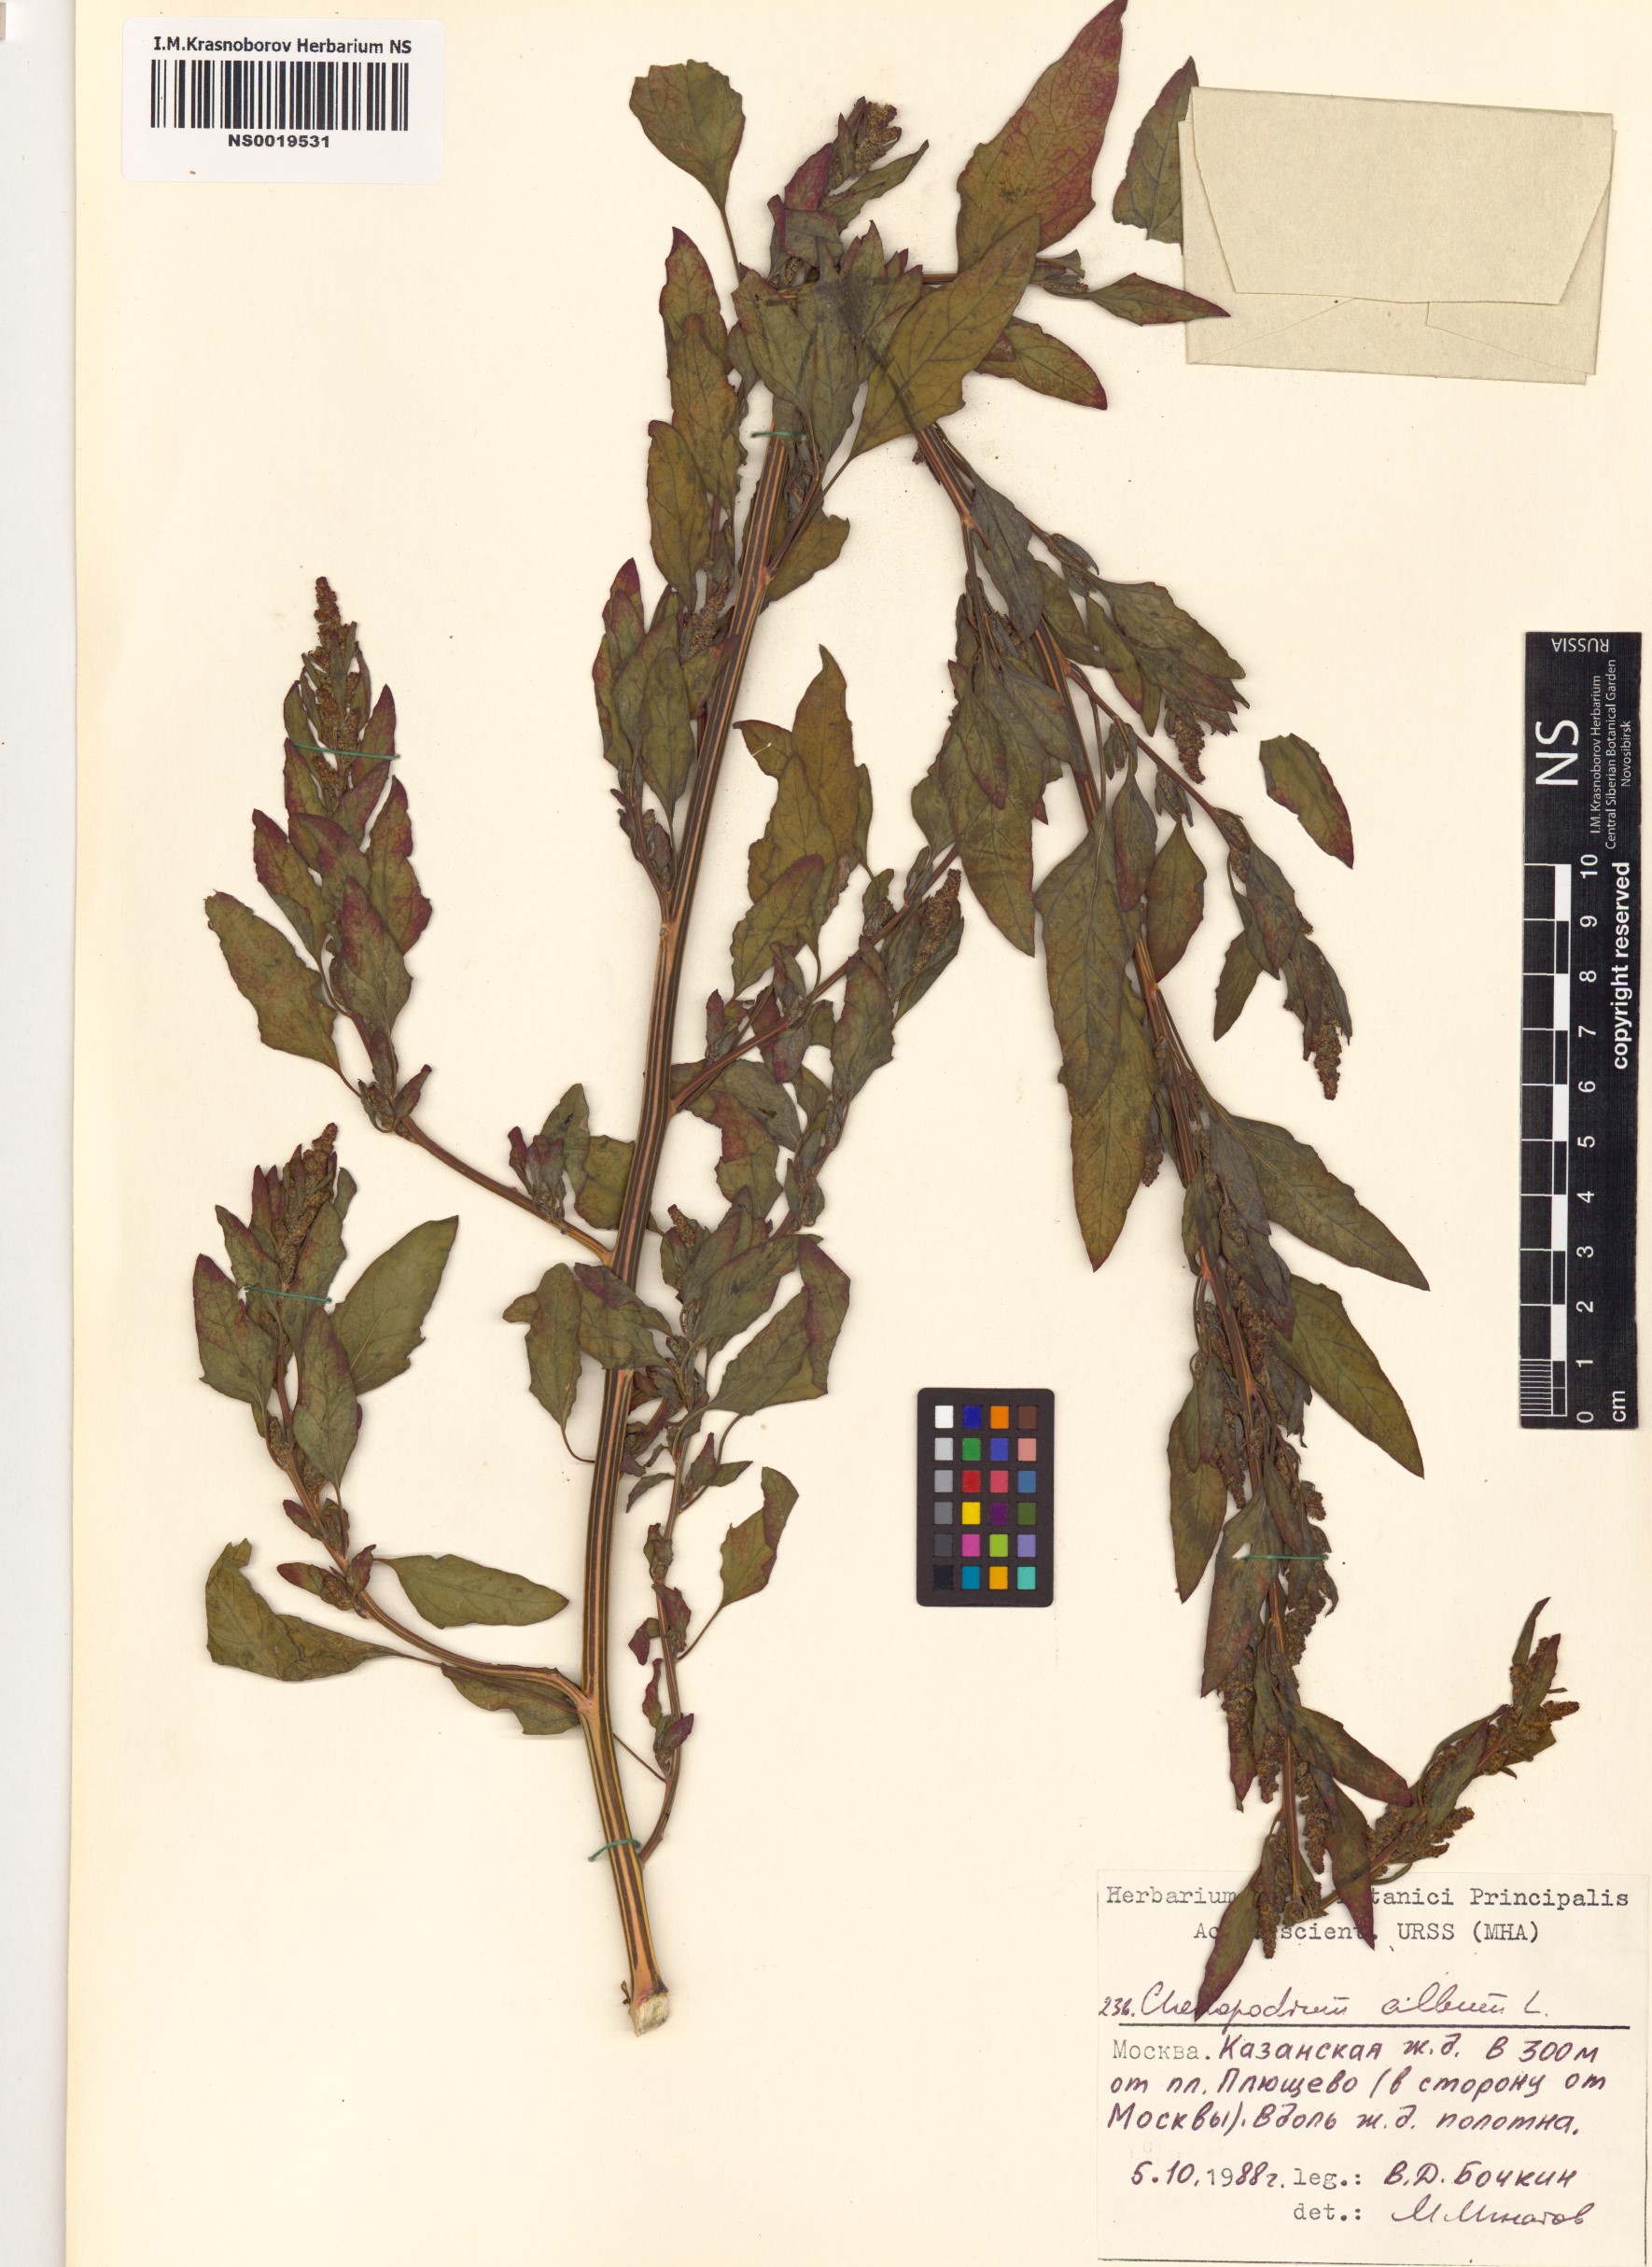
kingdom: Plantae
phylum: Tracheophyta
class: Magnoliopsida
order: Caryophyllales
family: Amaranthaceae
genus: Chenopodium
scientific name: Chenopodium album
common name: Fat-hen
